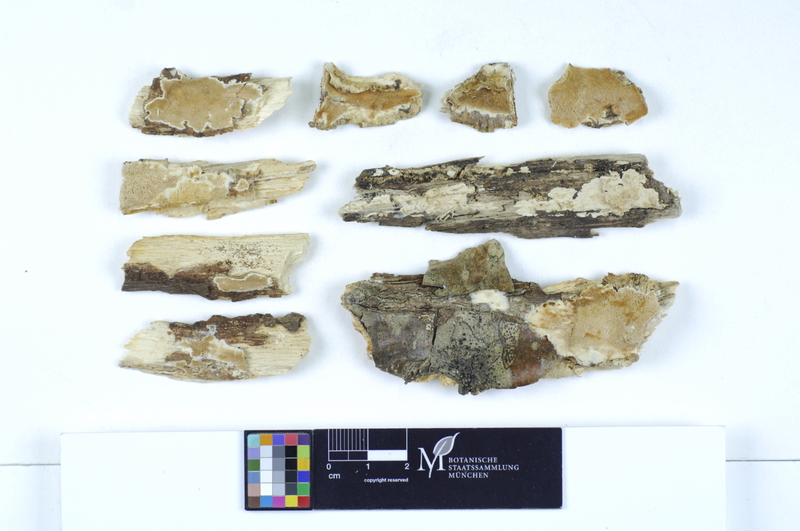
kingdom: Fungi
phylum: Basidiomycota
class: Agaricomycetes
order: Polyporales
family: Steccherinaceae
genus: Antrodiella
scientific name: Antrodiella romellii
